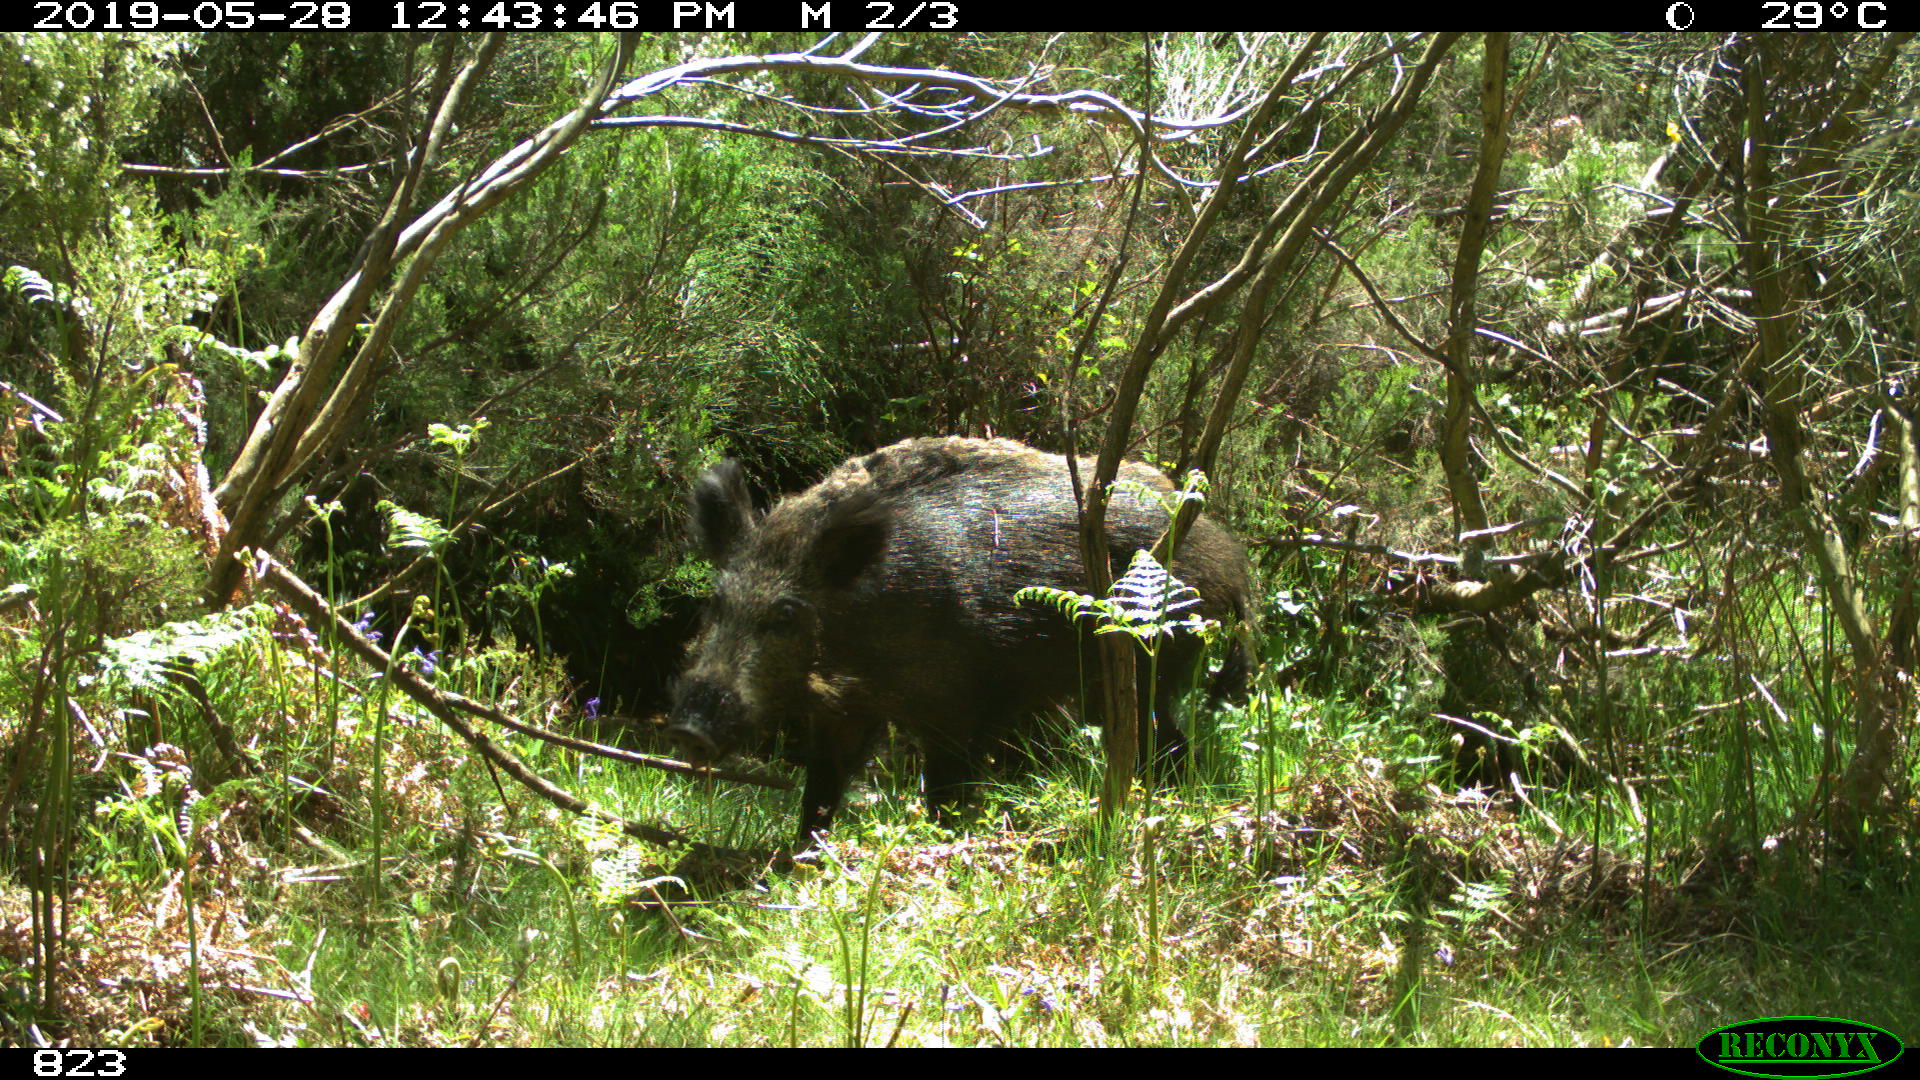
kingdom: Animalia
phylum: Chordata
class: Mammalia
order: Artiodactyla
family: Suidae
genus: Sus
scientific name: Sus scrofa
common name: Wild boar
